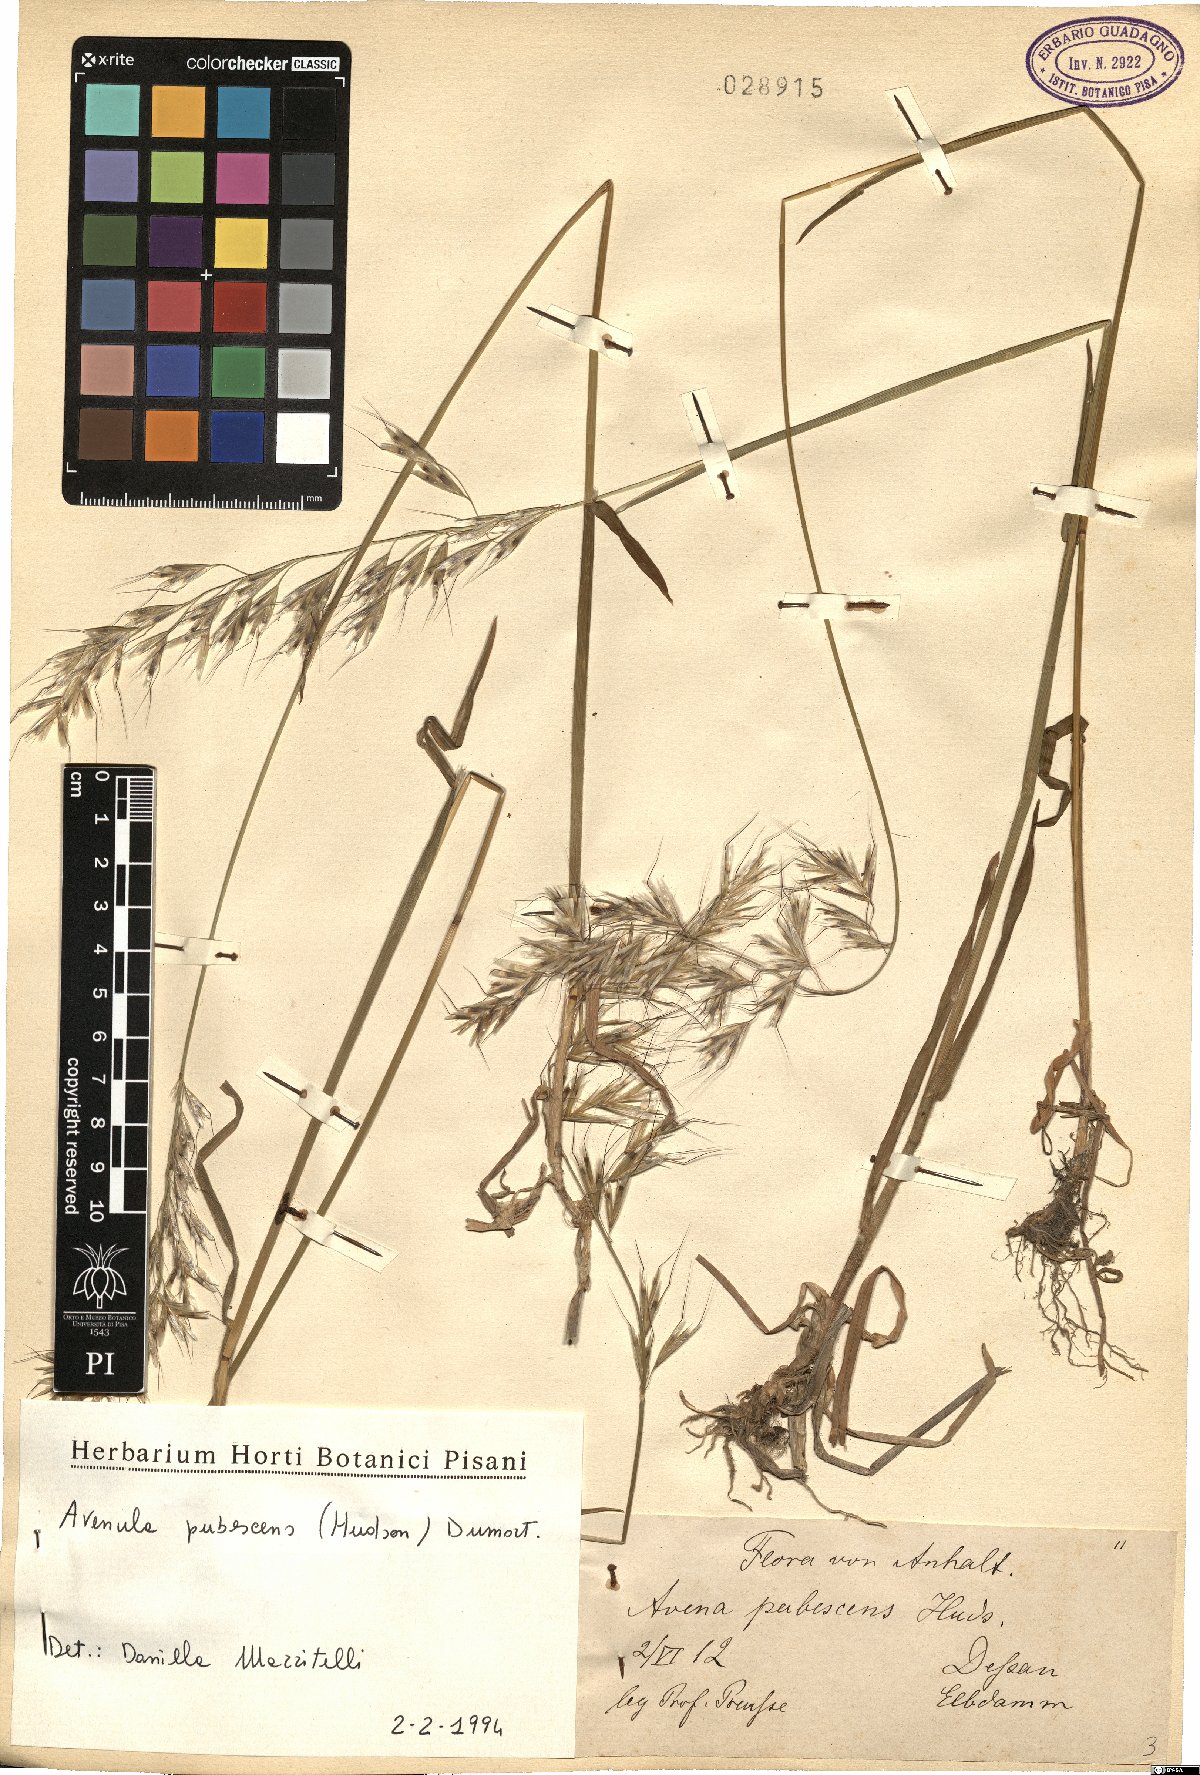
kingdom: Plantae
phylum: Tracheophyta
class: Liliopsida
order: Poales
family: Poaceae
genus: Avenula
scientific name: Avenula pubescens
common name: Downy alpine oatgrass
